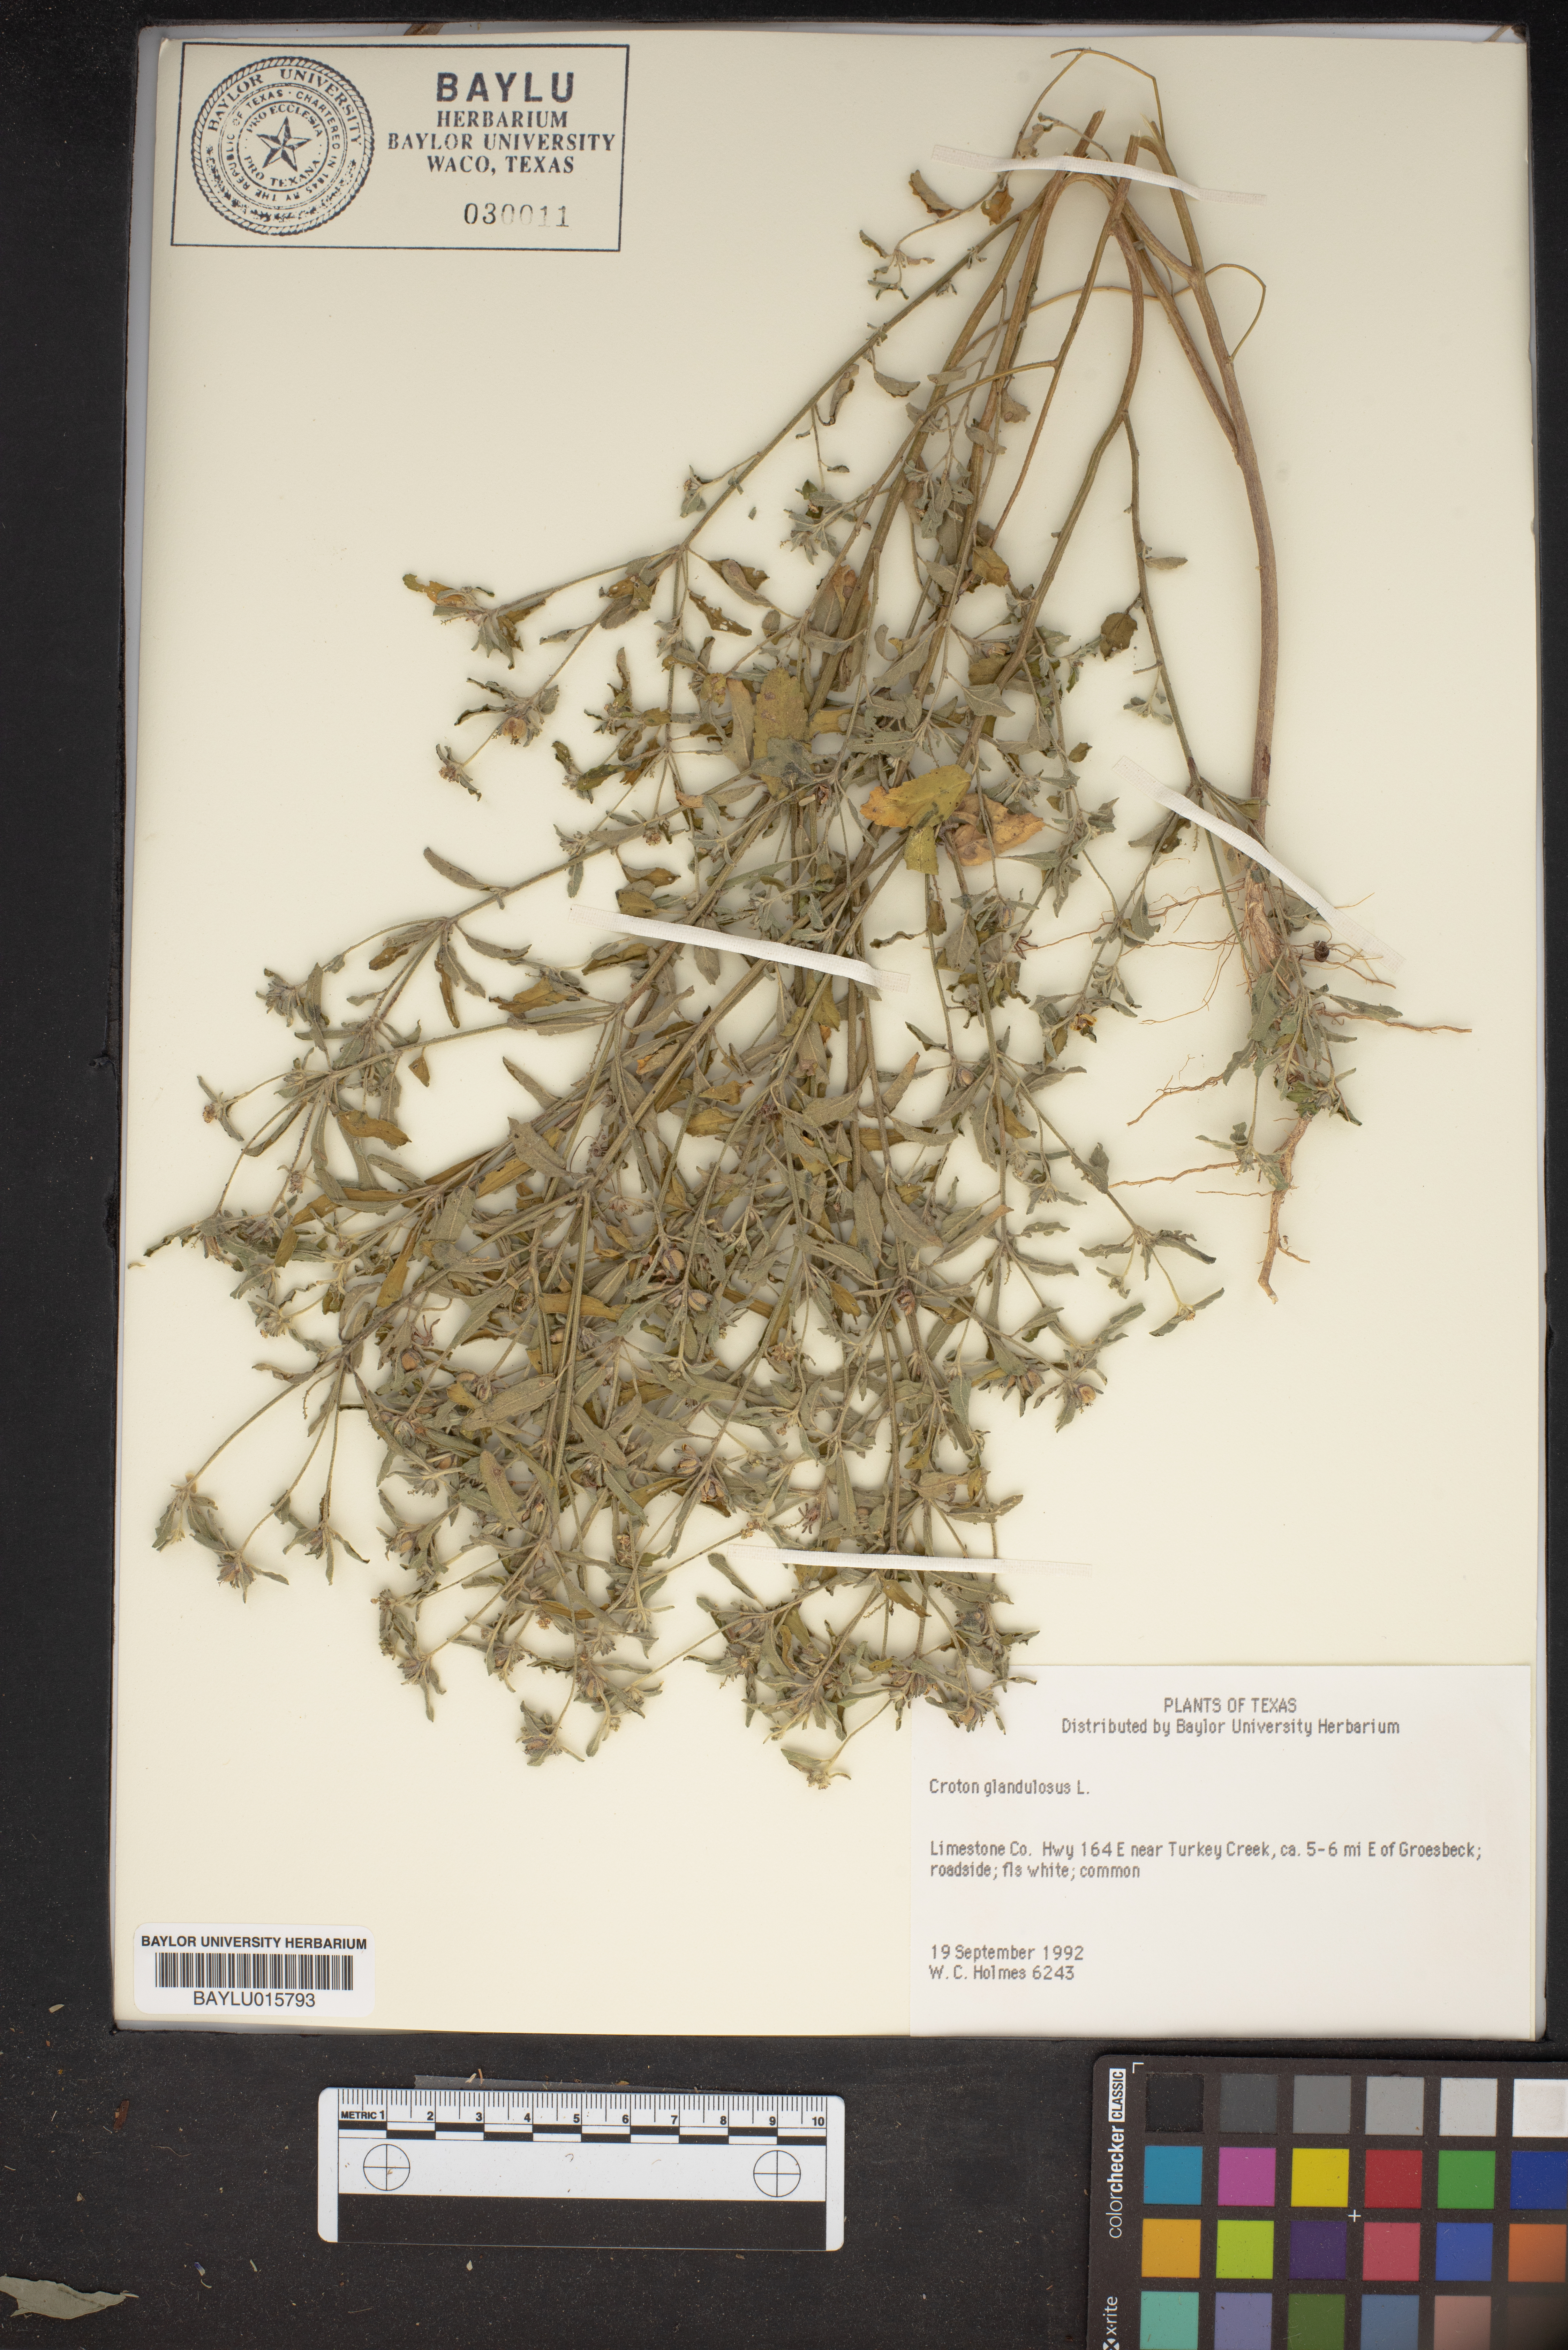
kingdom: Plantae
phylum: Tracheophyta
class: Magnoliopsida
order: Malpighiales
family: Euphorbiaceae
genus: Croton
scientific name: Croton glandulosus
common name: Tropic croton
